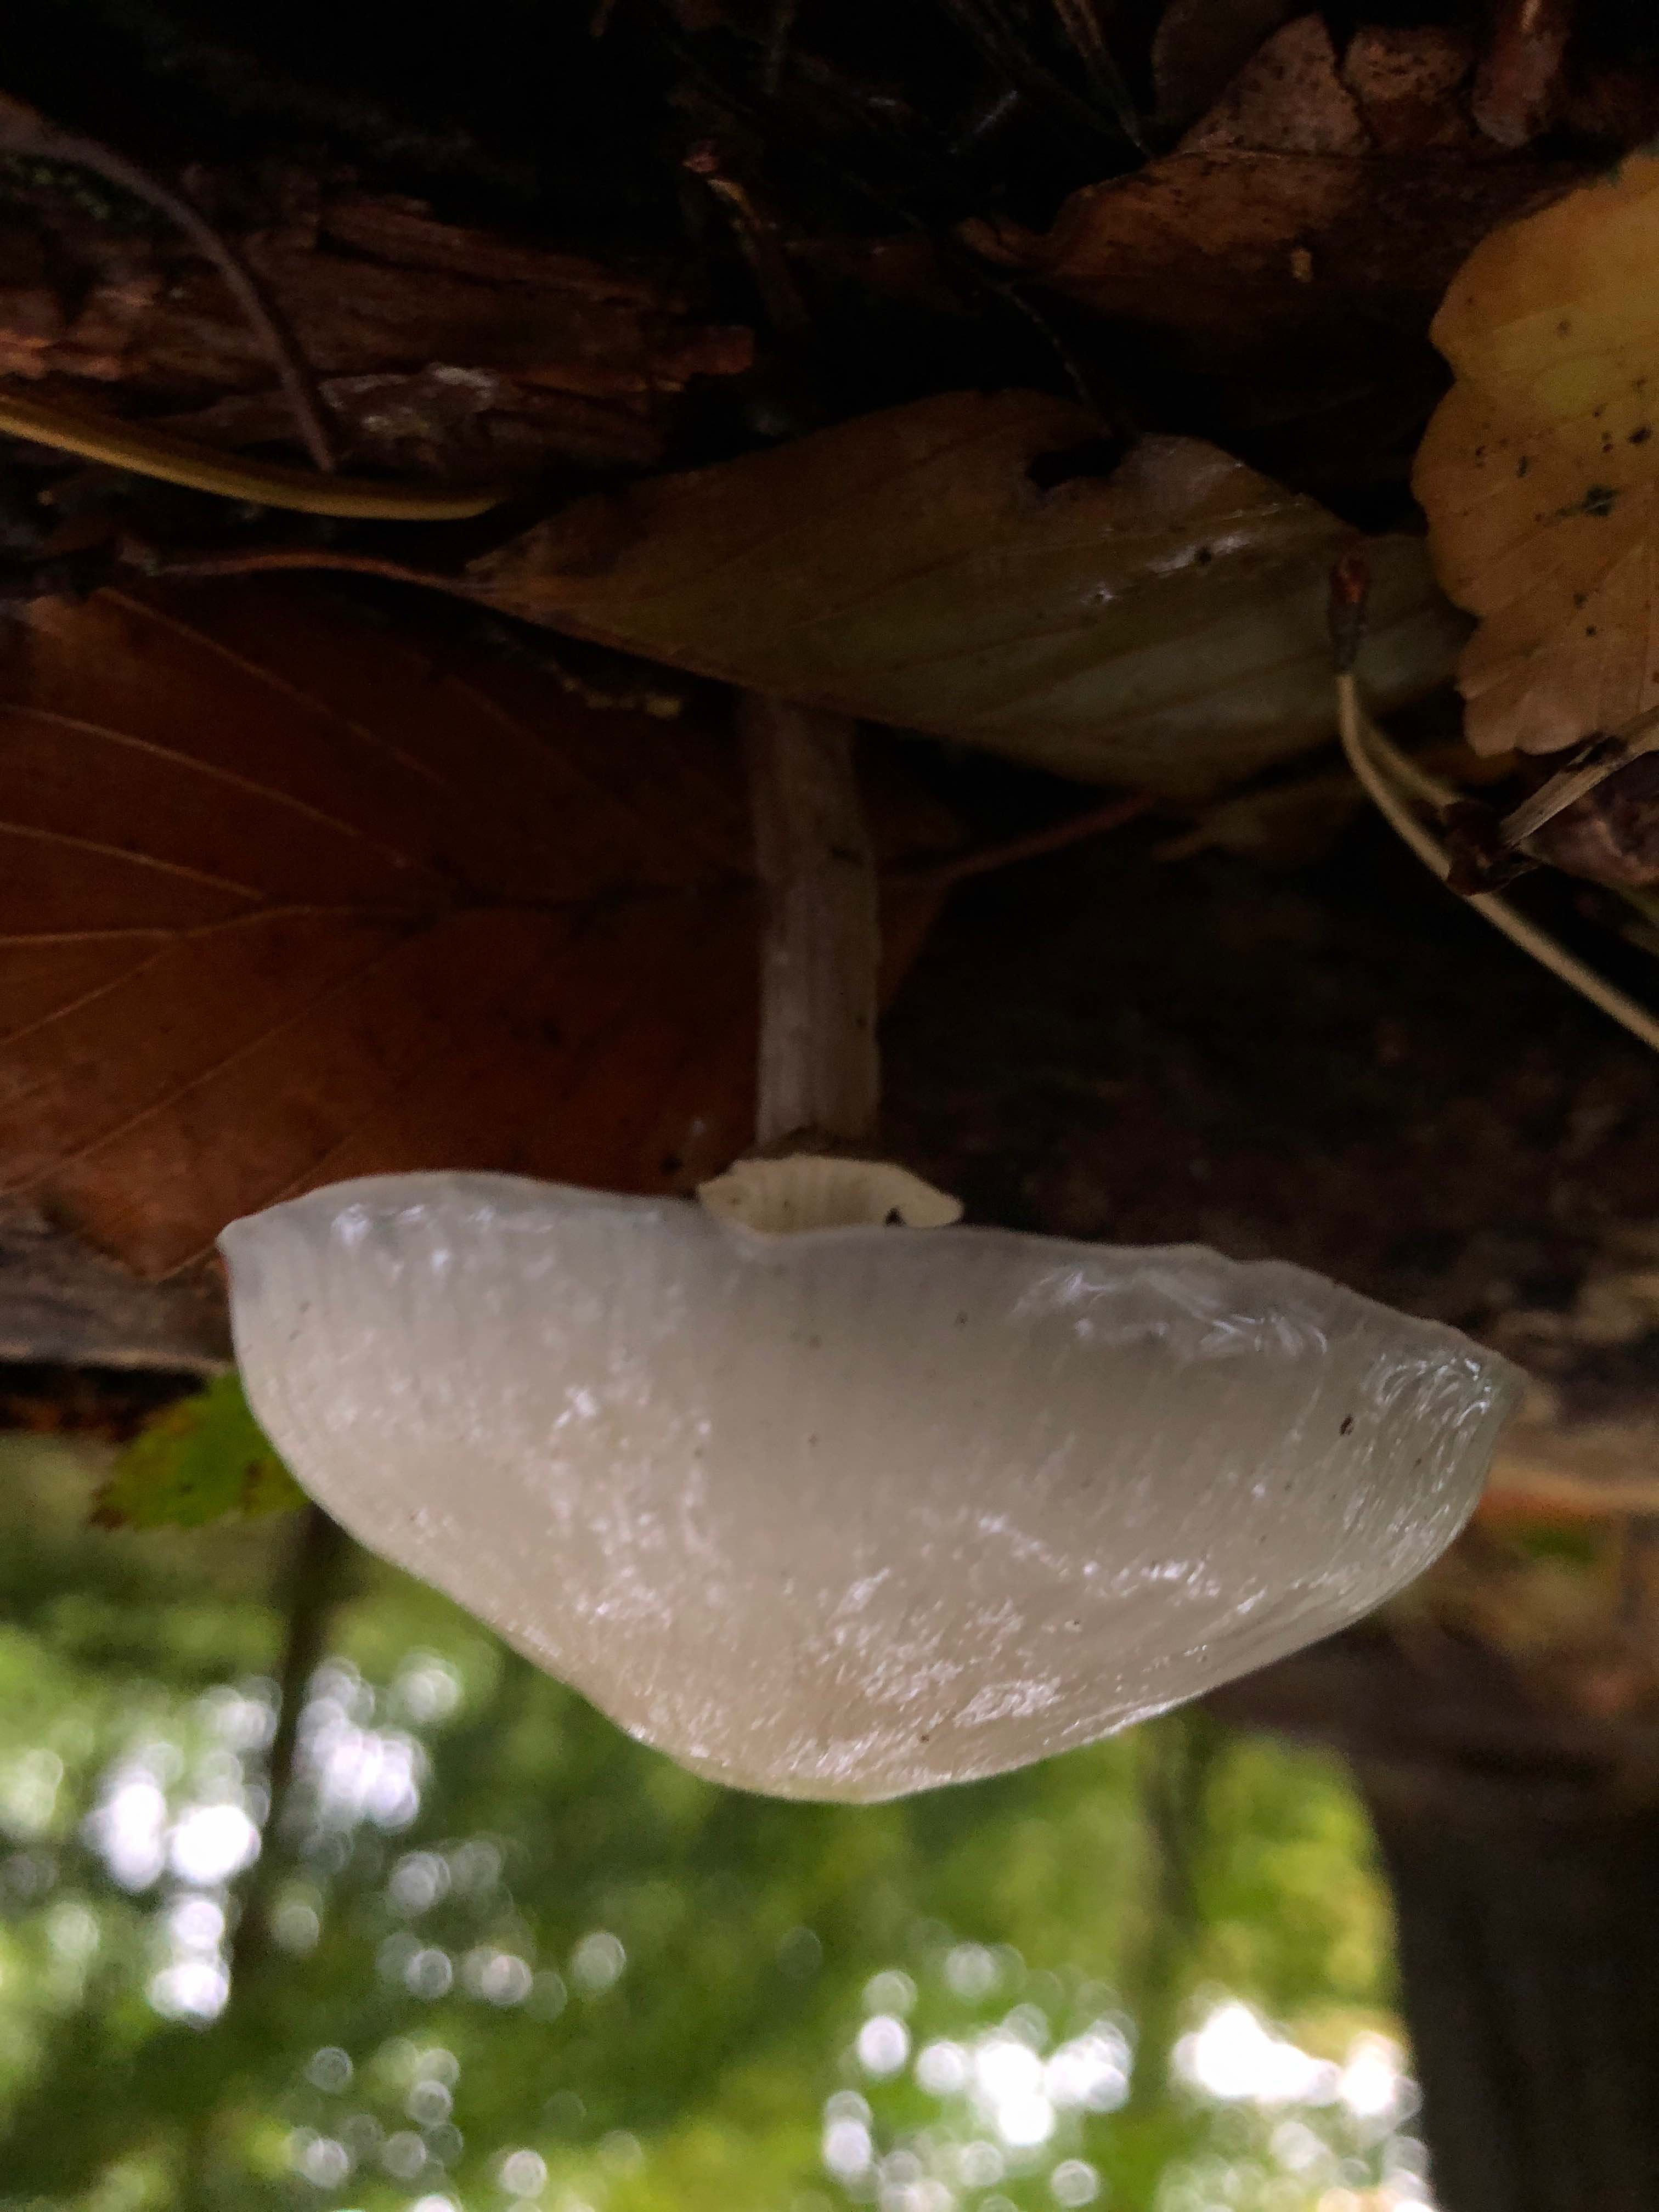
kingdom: Fungi
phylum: Basidiomycota
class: Agaricomycetes
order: Agaricales
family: Physalacriaceae
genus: Mucidula
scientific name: Mucidula mucida
